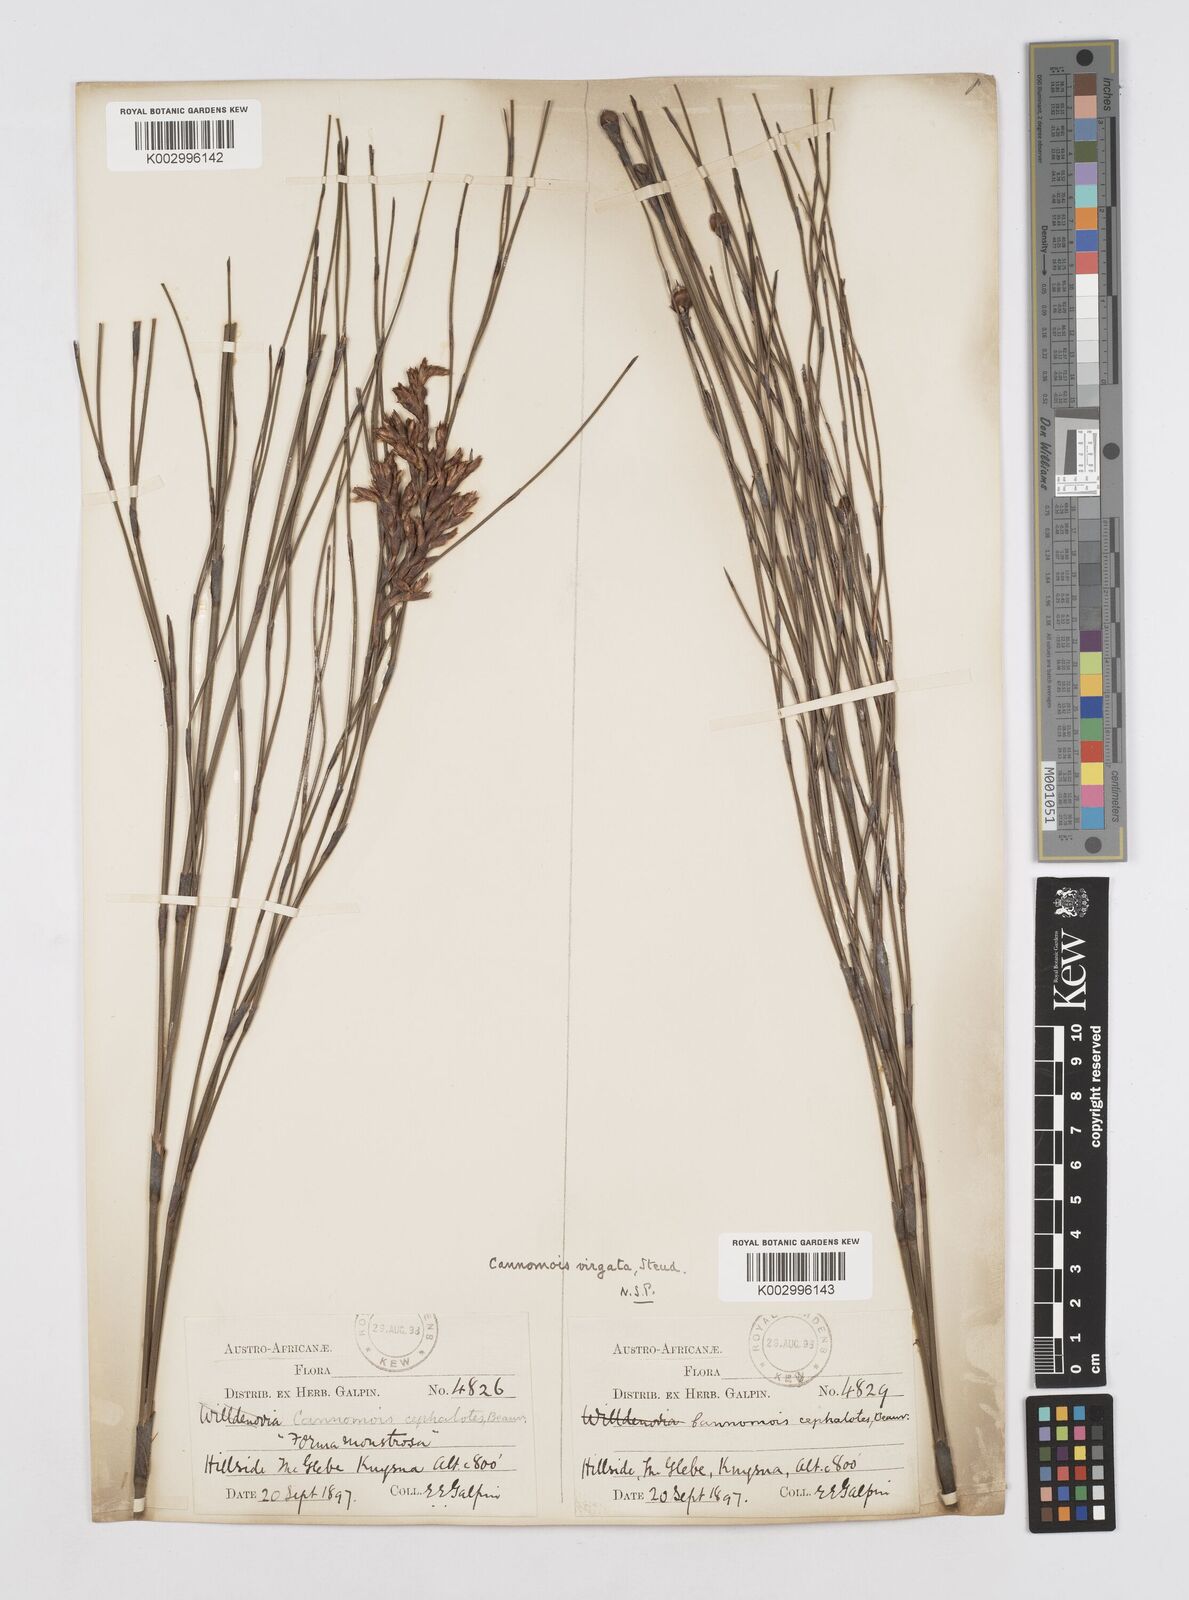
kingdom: Plantae
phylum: Tracheophyta
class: Liliopsida
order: Poales
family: Restionaceae
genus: Cannomois
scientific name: Cannomois virgata
